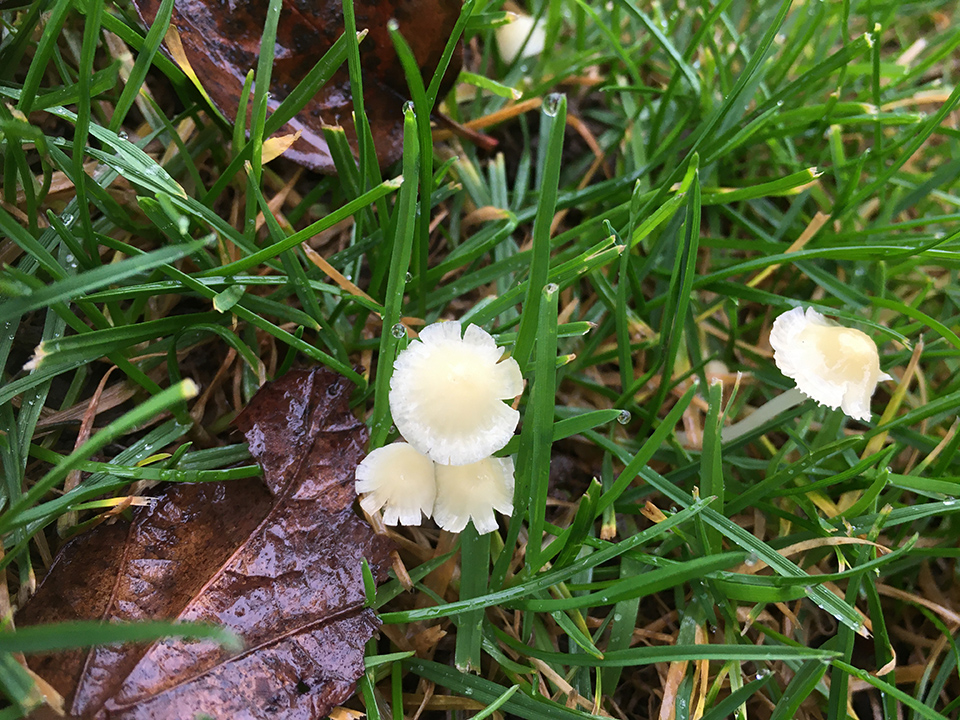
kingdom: Fungi
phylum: Basidiomycota
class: Agaricomycetes
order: Agaricales
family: Mycenaceae
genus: Atheniella
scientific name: Atheniella flavoalba
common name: gulhvid huesvamp
